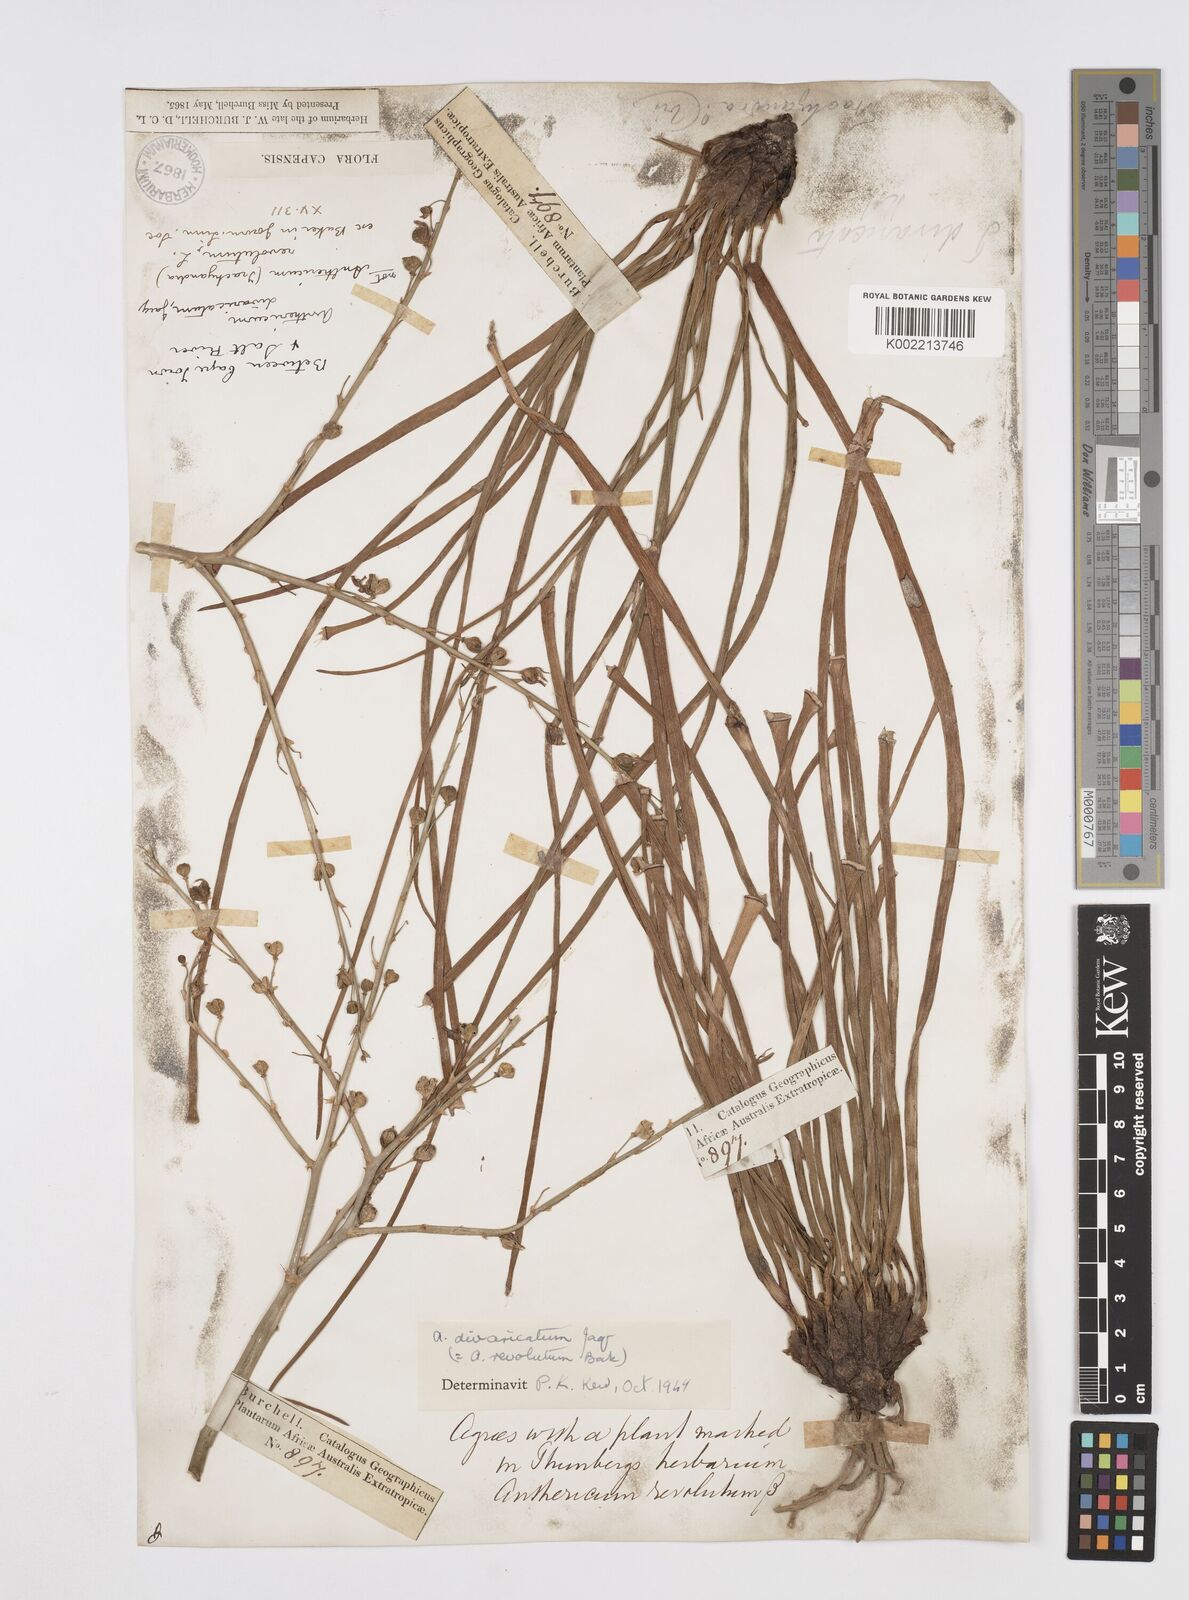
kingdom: Plantae
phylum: Tracheophyta
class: Liliopsida
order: Asparagales
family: Asphodelaceae
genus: Trachyandra
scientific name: Trachyandra divaricata
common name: Dune onionweed
